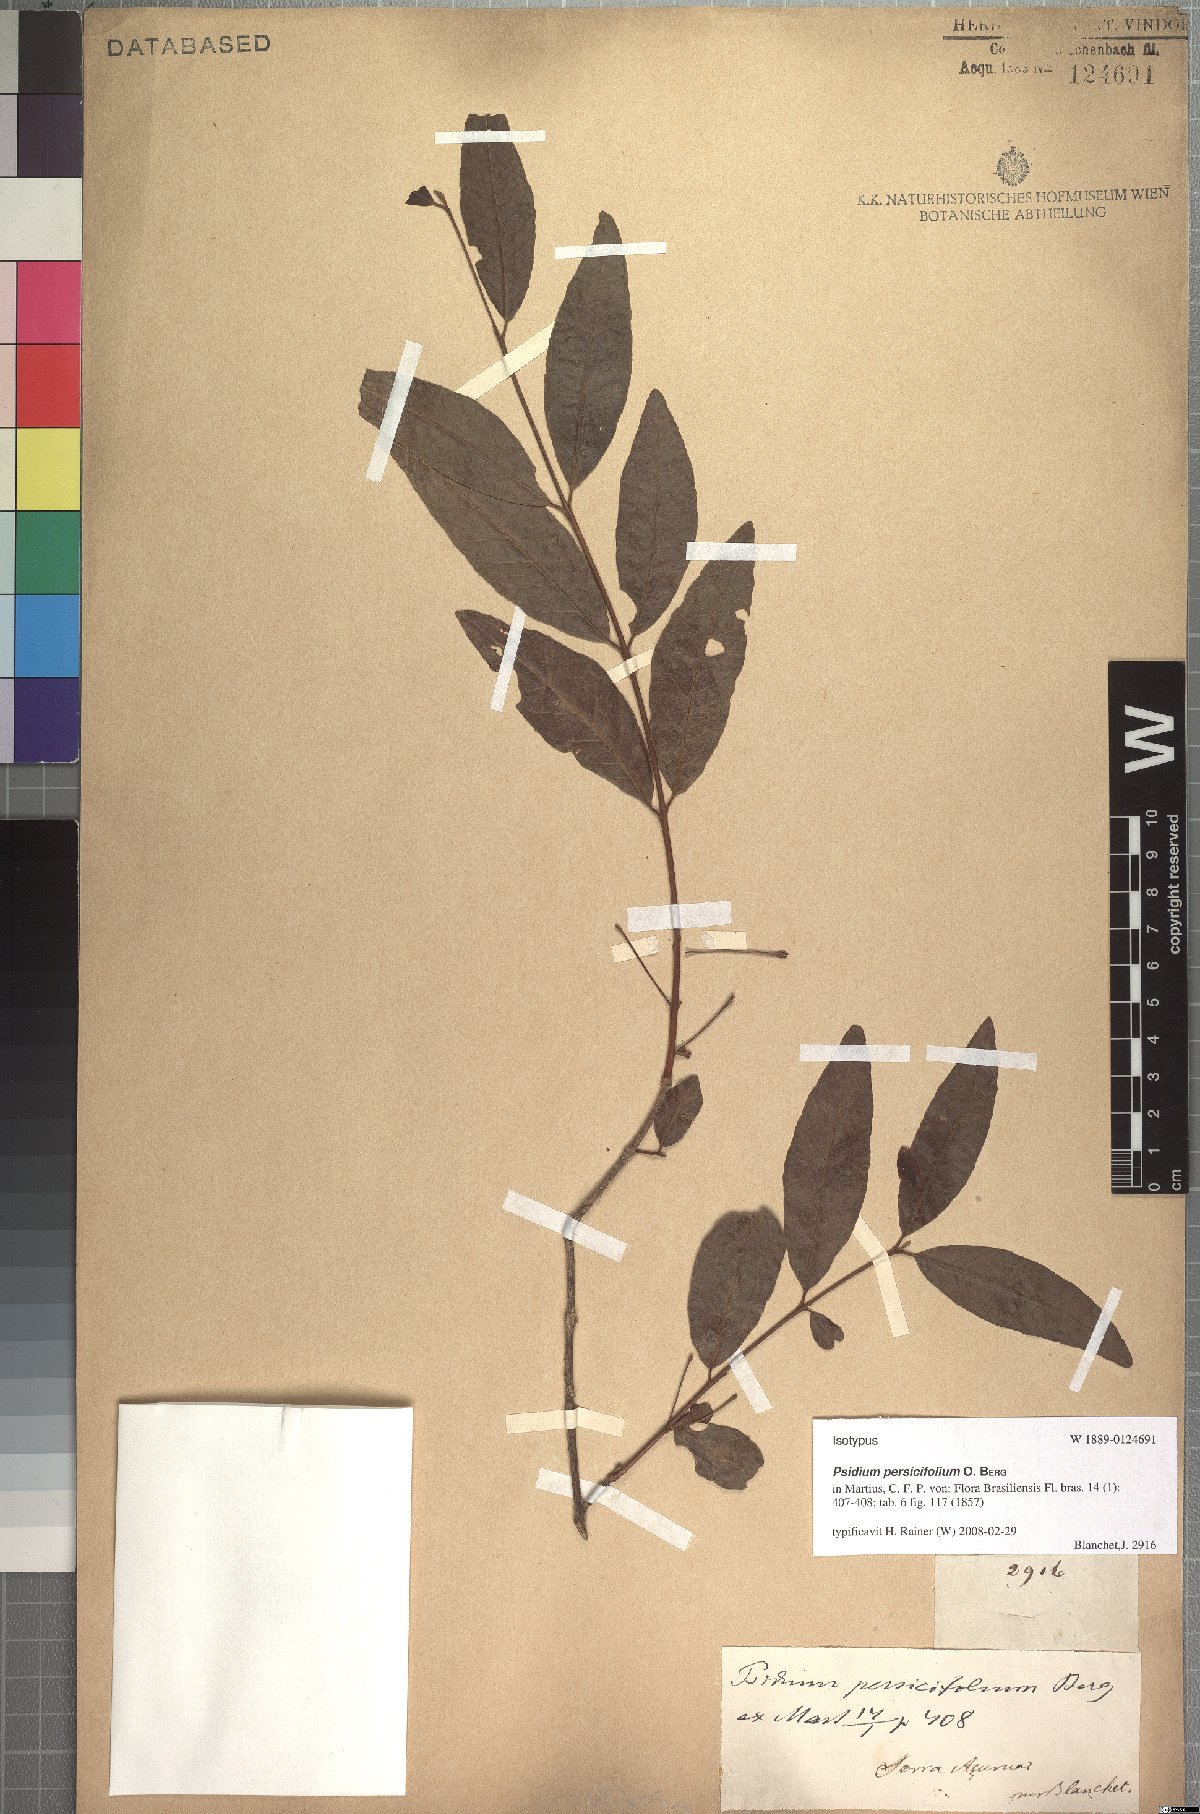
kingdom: Plantae
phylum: Tracheophyta
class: Magnoliopsida
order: Myrtales
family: Myrtaceae
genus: Psidium
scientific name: Psidium striatulum
